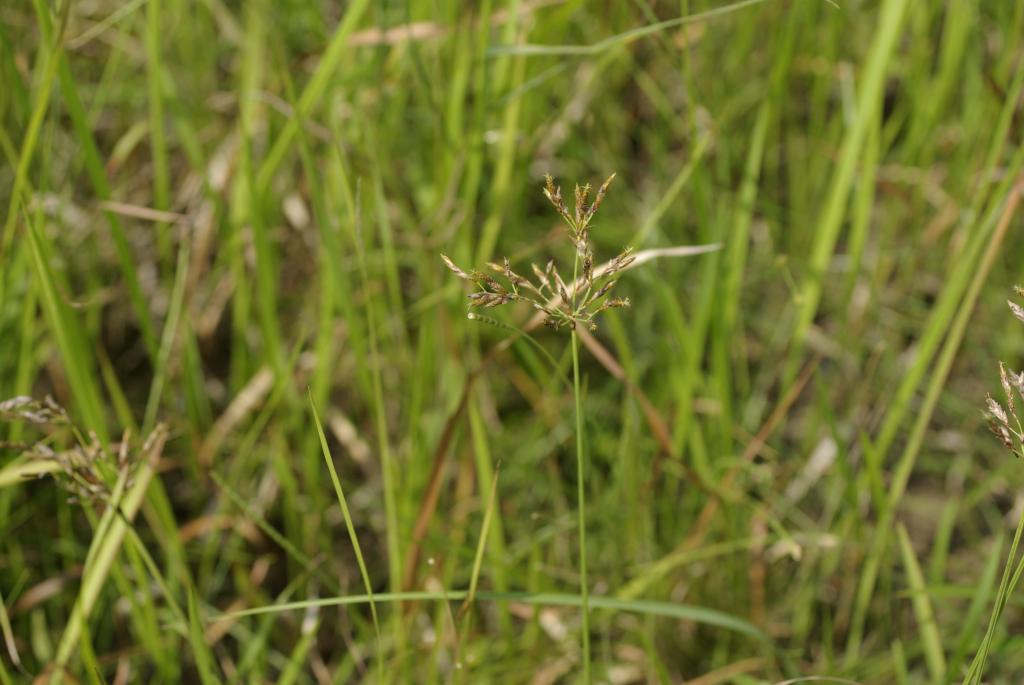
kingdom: Plantae
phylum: Tracheophyta
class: Liliopsida
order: Poales
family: Cyperaceae
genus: Fimbristylis
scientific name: Fimbristylis eragrostis
